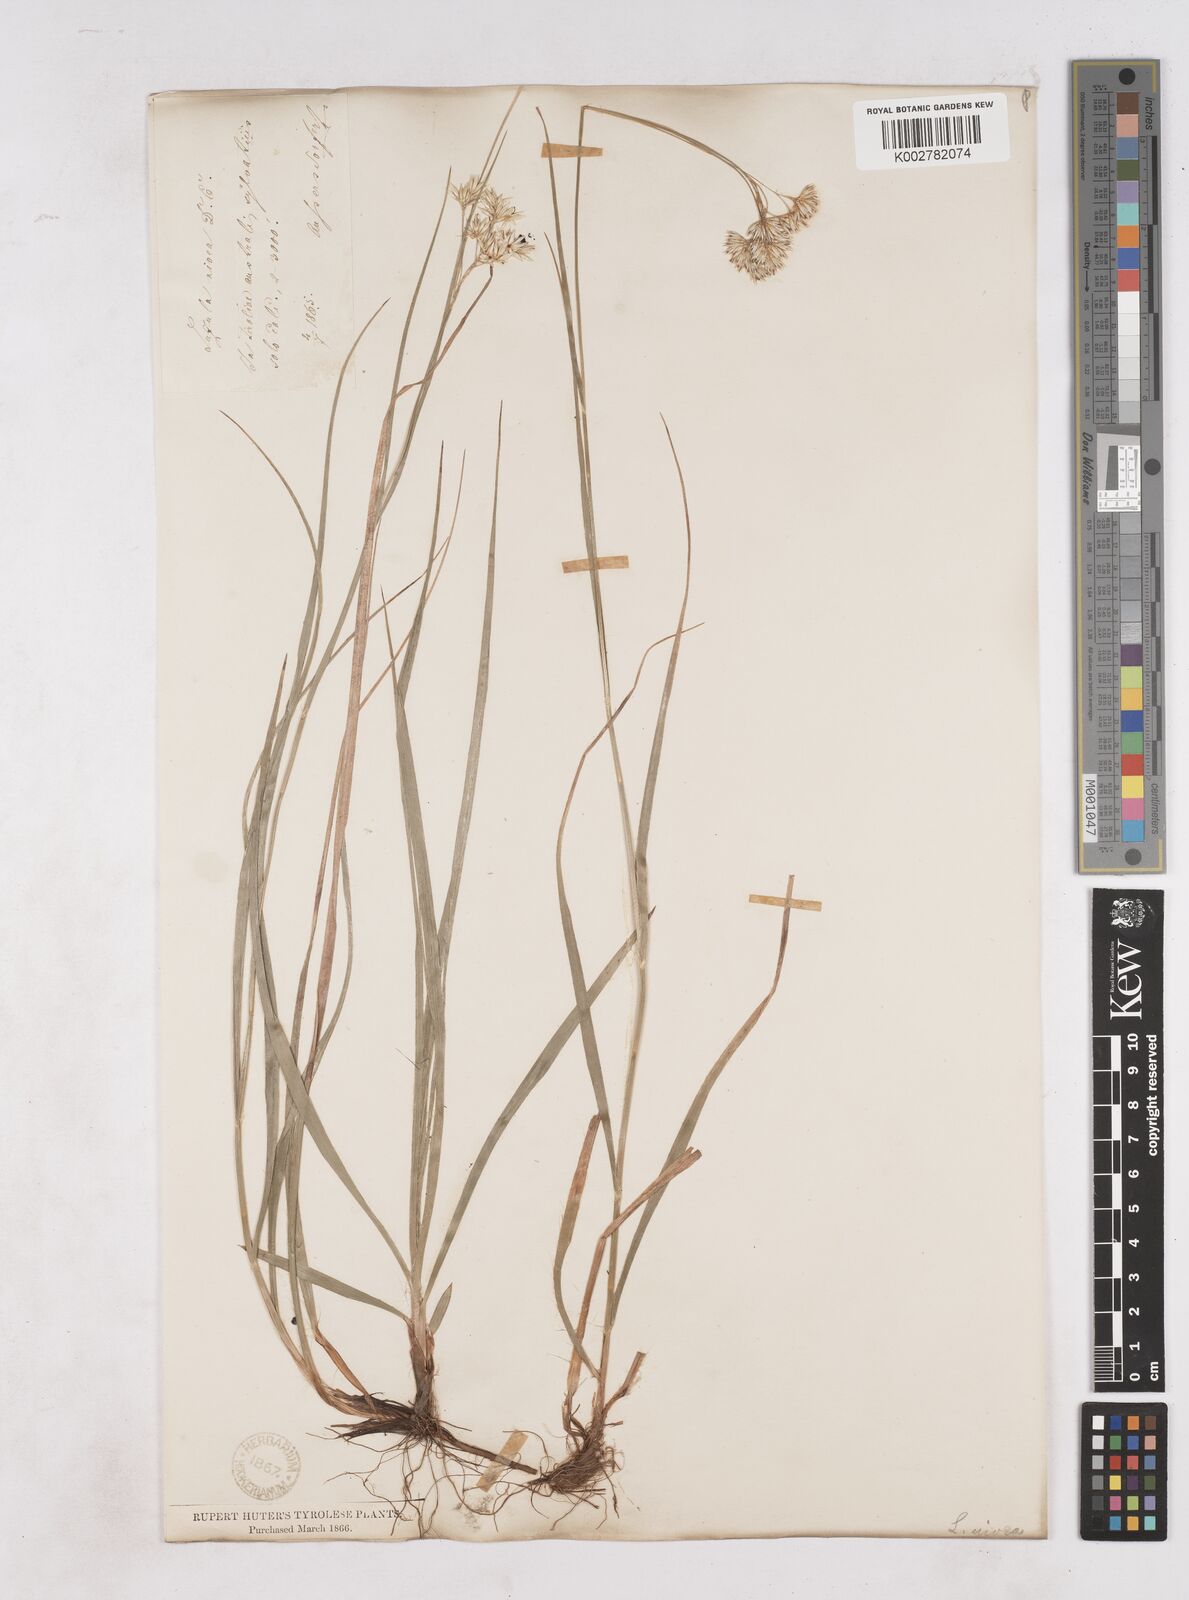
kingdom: Plantae
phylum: Tracheophyta
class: Liliopsida
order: Poales
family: Juncaceae
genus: Luzula
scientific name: Luzula nivea
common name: Snow-white wood-rush
